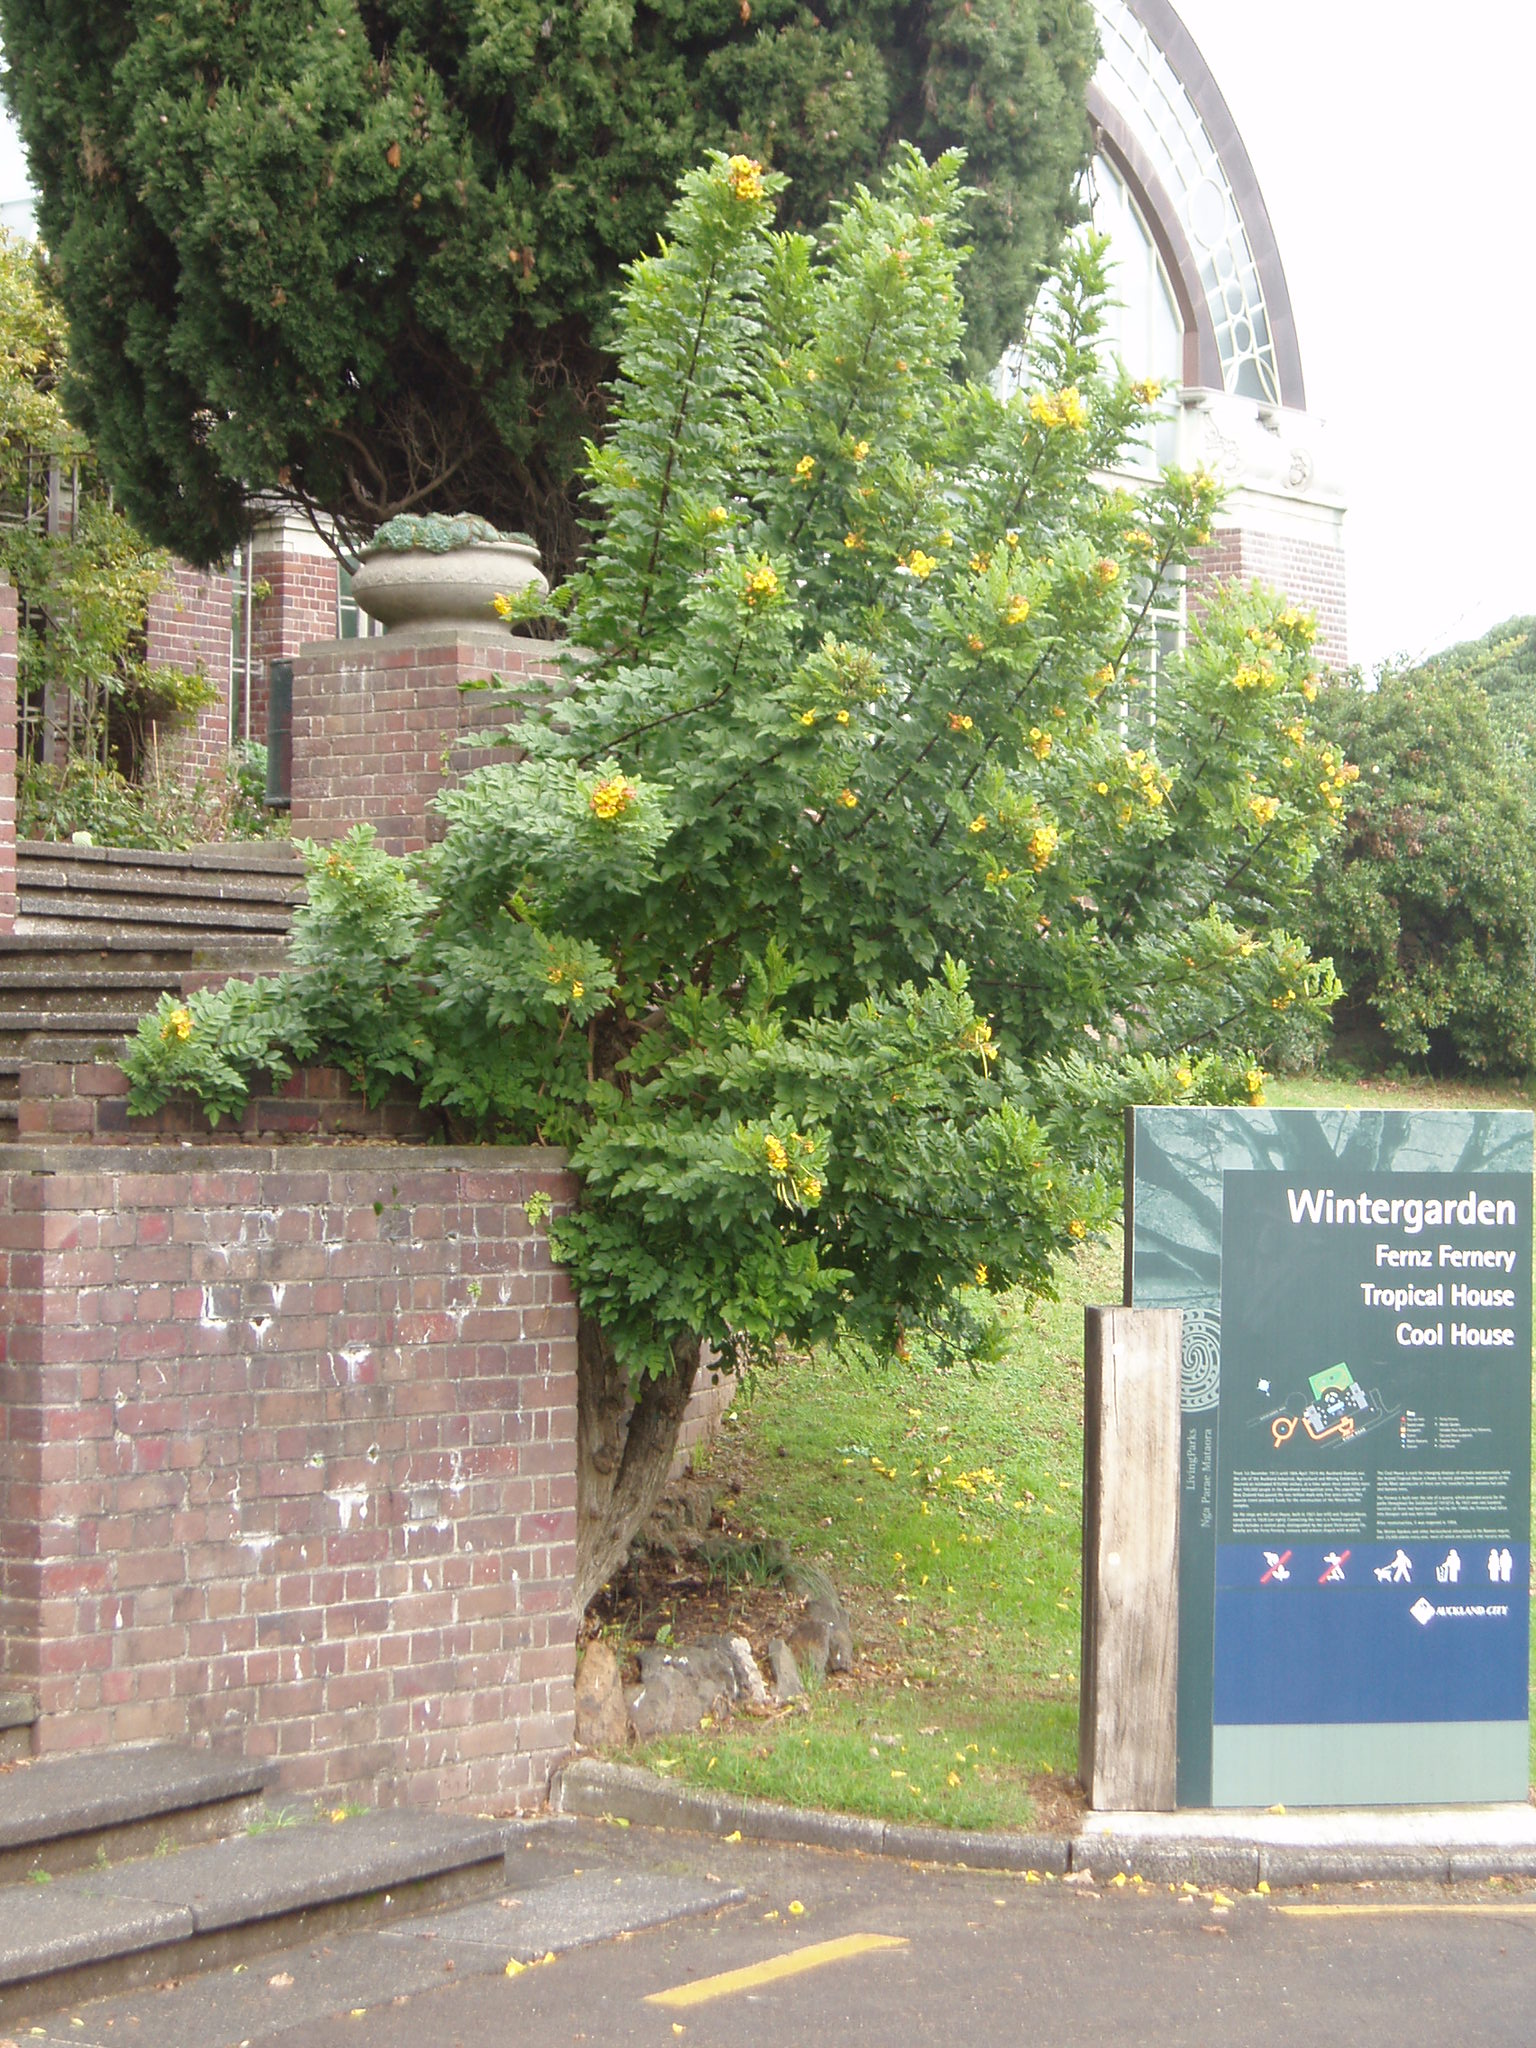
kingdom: Plantae
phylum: Tracheophyta
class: Magnoliopsida
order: Lamiales
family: Bignoniaceae
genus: Tecoma
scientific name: Tecoma smithii
